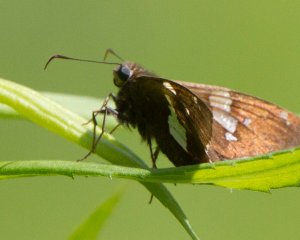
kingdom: Animalia
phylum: Arthropoda
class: Insecta
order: Lepidoptera
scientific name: Lepidoptera
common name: Butterflies
